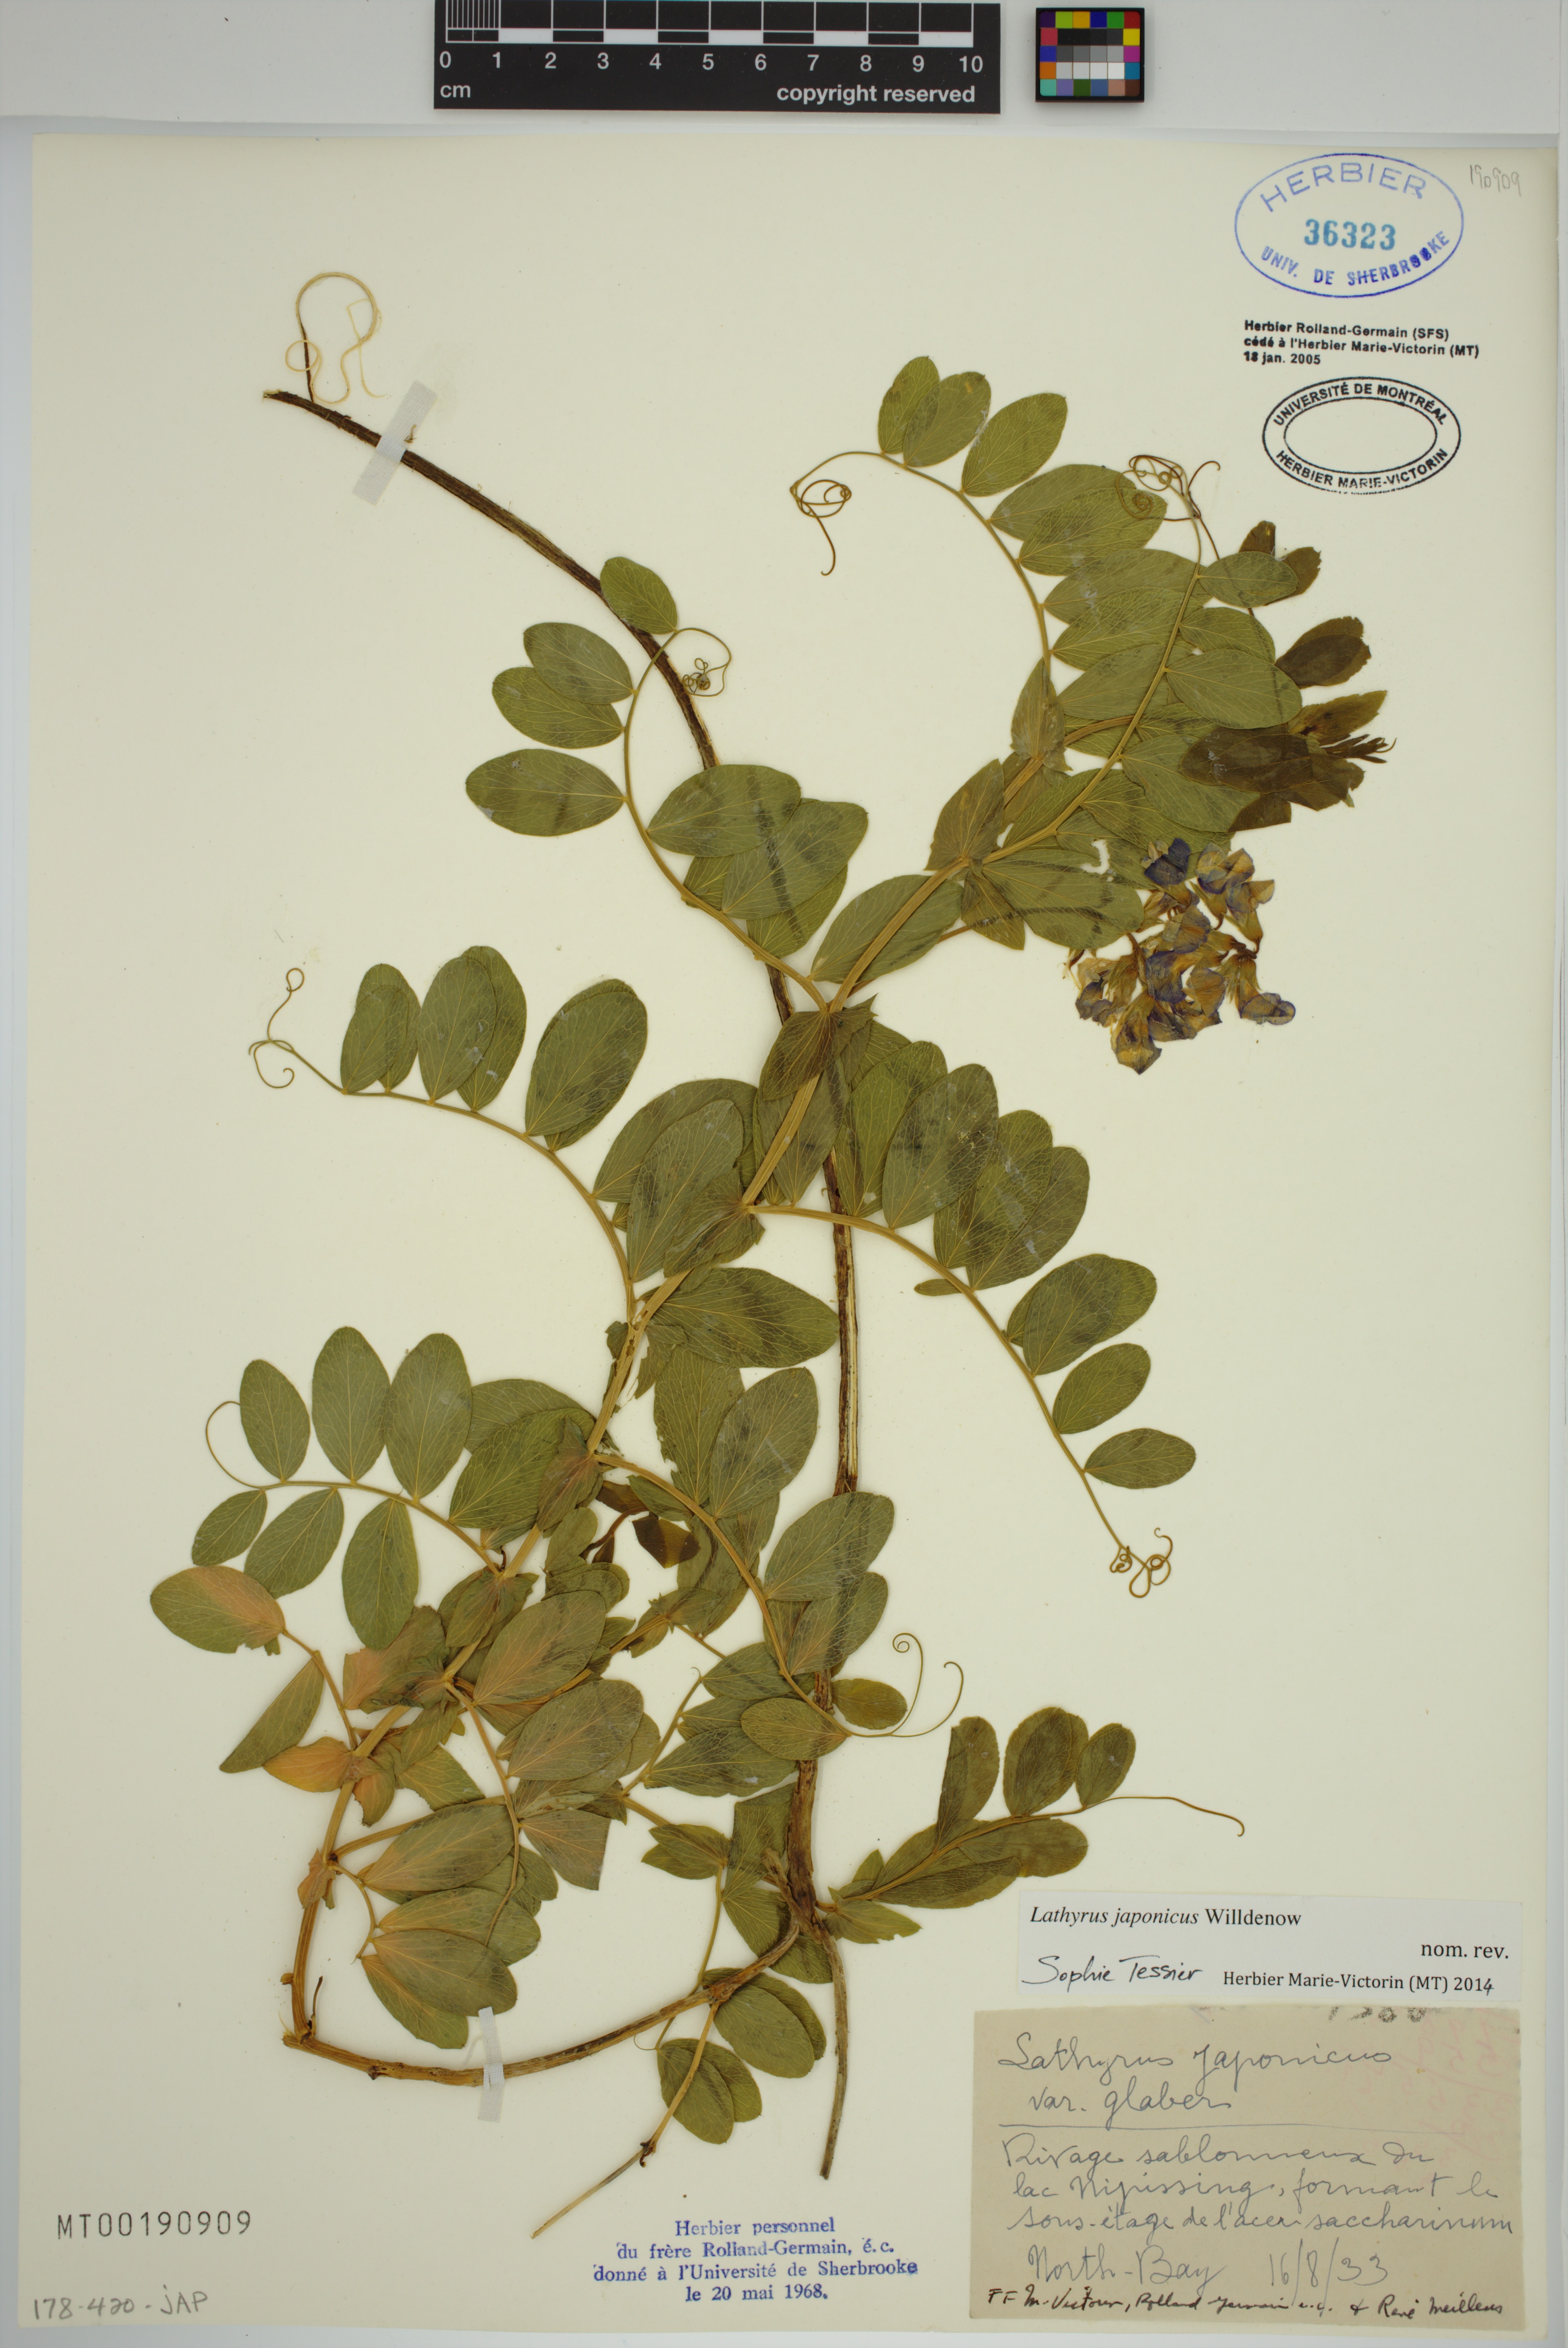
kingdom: Plantae
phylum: Tracheophyta
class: Magnoliopsida
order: Fabales
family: Fabaceae
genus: Lathyrus
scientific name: Lathyrus japonicus
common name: Sea pea
